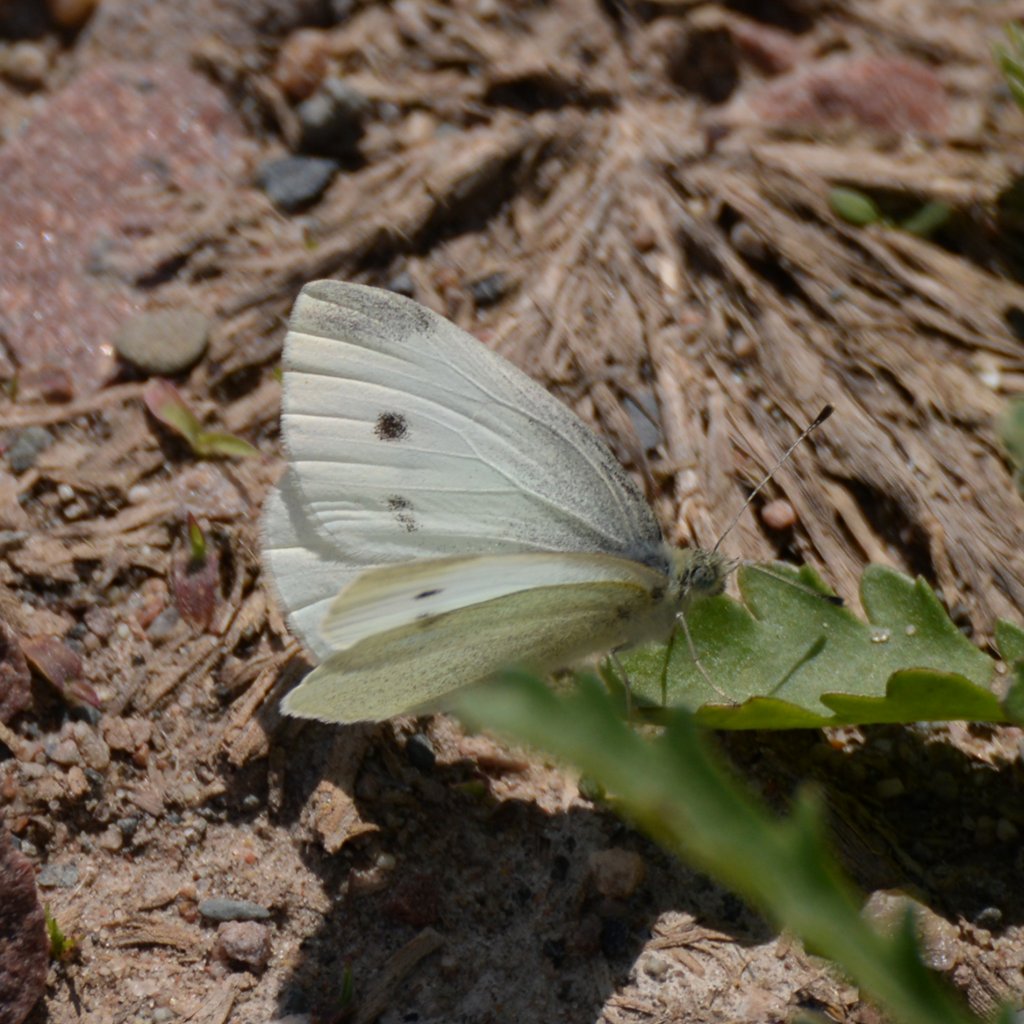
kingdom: Animalia
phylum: Arthropoda
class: Insecta
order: Lepidoptera
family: Pieridae
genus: Pieris
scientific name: Pieris rapae
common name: Cabbage White
